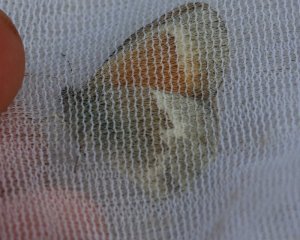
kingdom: Animalia
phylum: Arthropoda
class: Insecta
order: Lepidoptera
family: Nymphalidae
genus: Coenonympha
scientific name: Coenonympha tullia
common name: Large Heath
